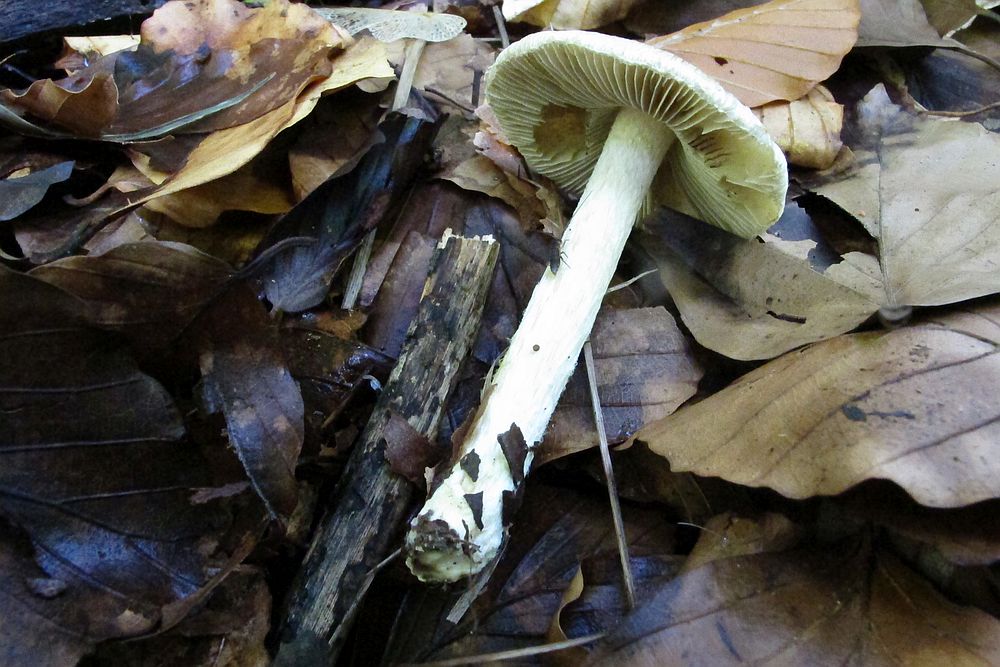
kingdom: Fungi
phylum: Basidiomycota
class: Agaricomycetes
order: Agaricales
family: Inocybaceae
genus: Pseudosperma
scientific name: Pseudosperma
